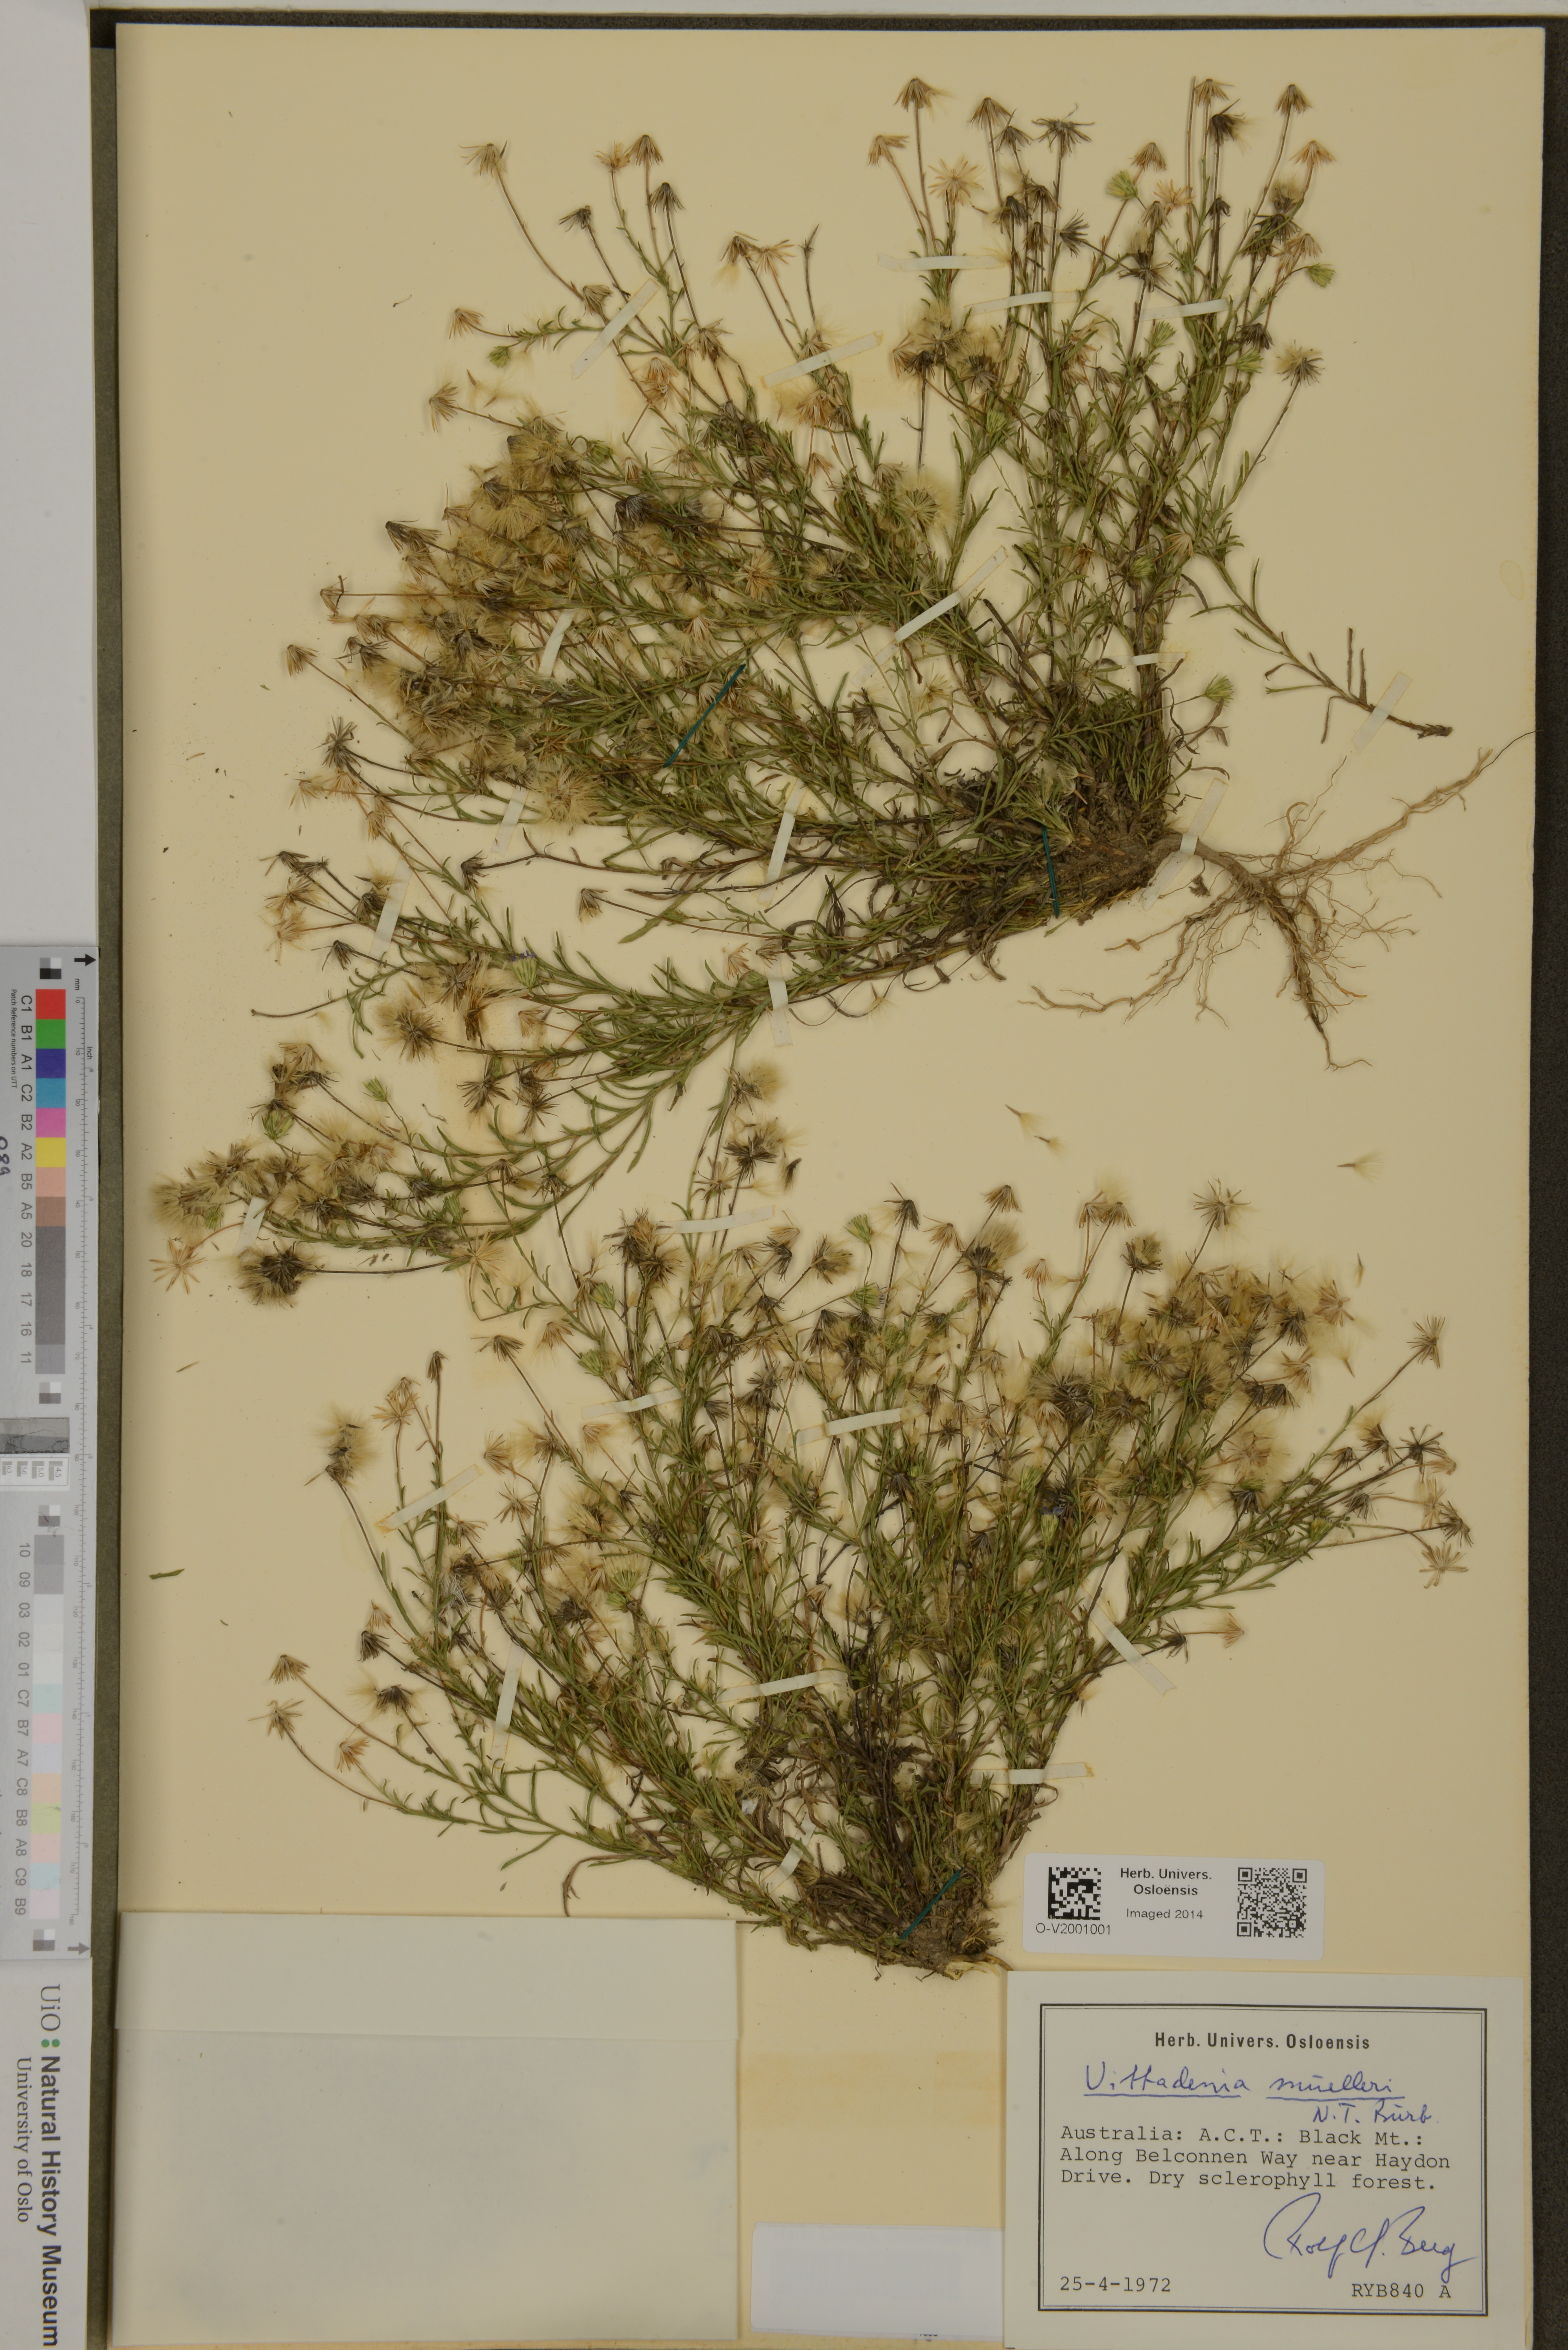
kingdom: Plantae
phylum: Tracheophyta
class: Magnoliopsida
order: Asterales
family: Asteraceae
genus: Vittadinia
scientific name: Vittadinia muelleri
